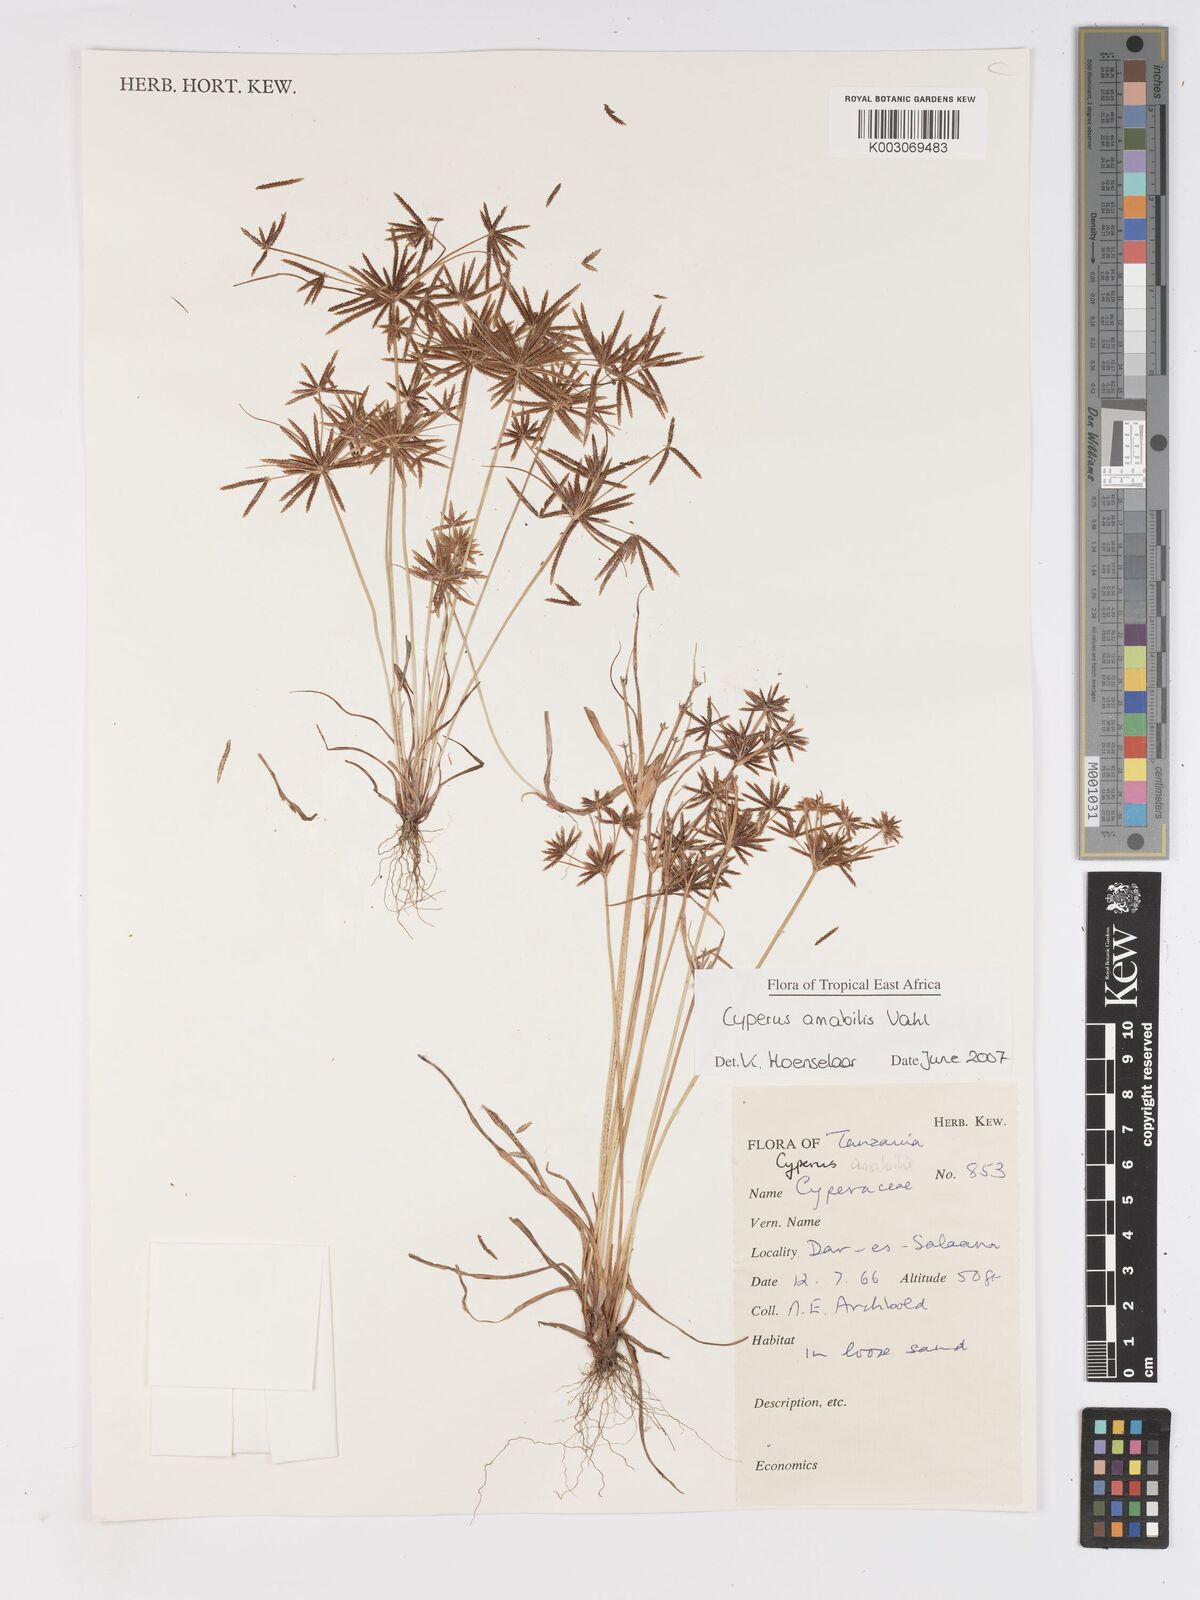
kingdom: Plantae
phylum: Tracheophyta
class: Liliopsida
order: Poales
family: Cyperaceae
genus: Cyperus
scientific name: Cyperus amabilis
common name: Foothill flat sedge
